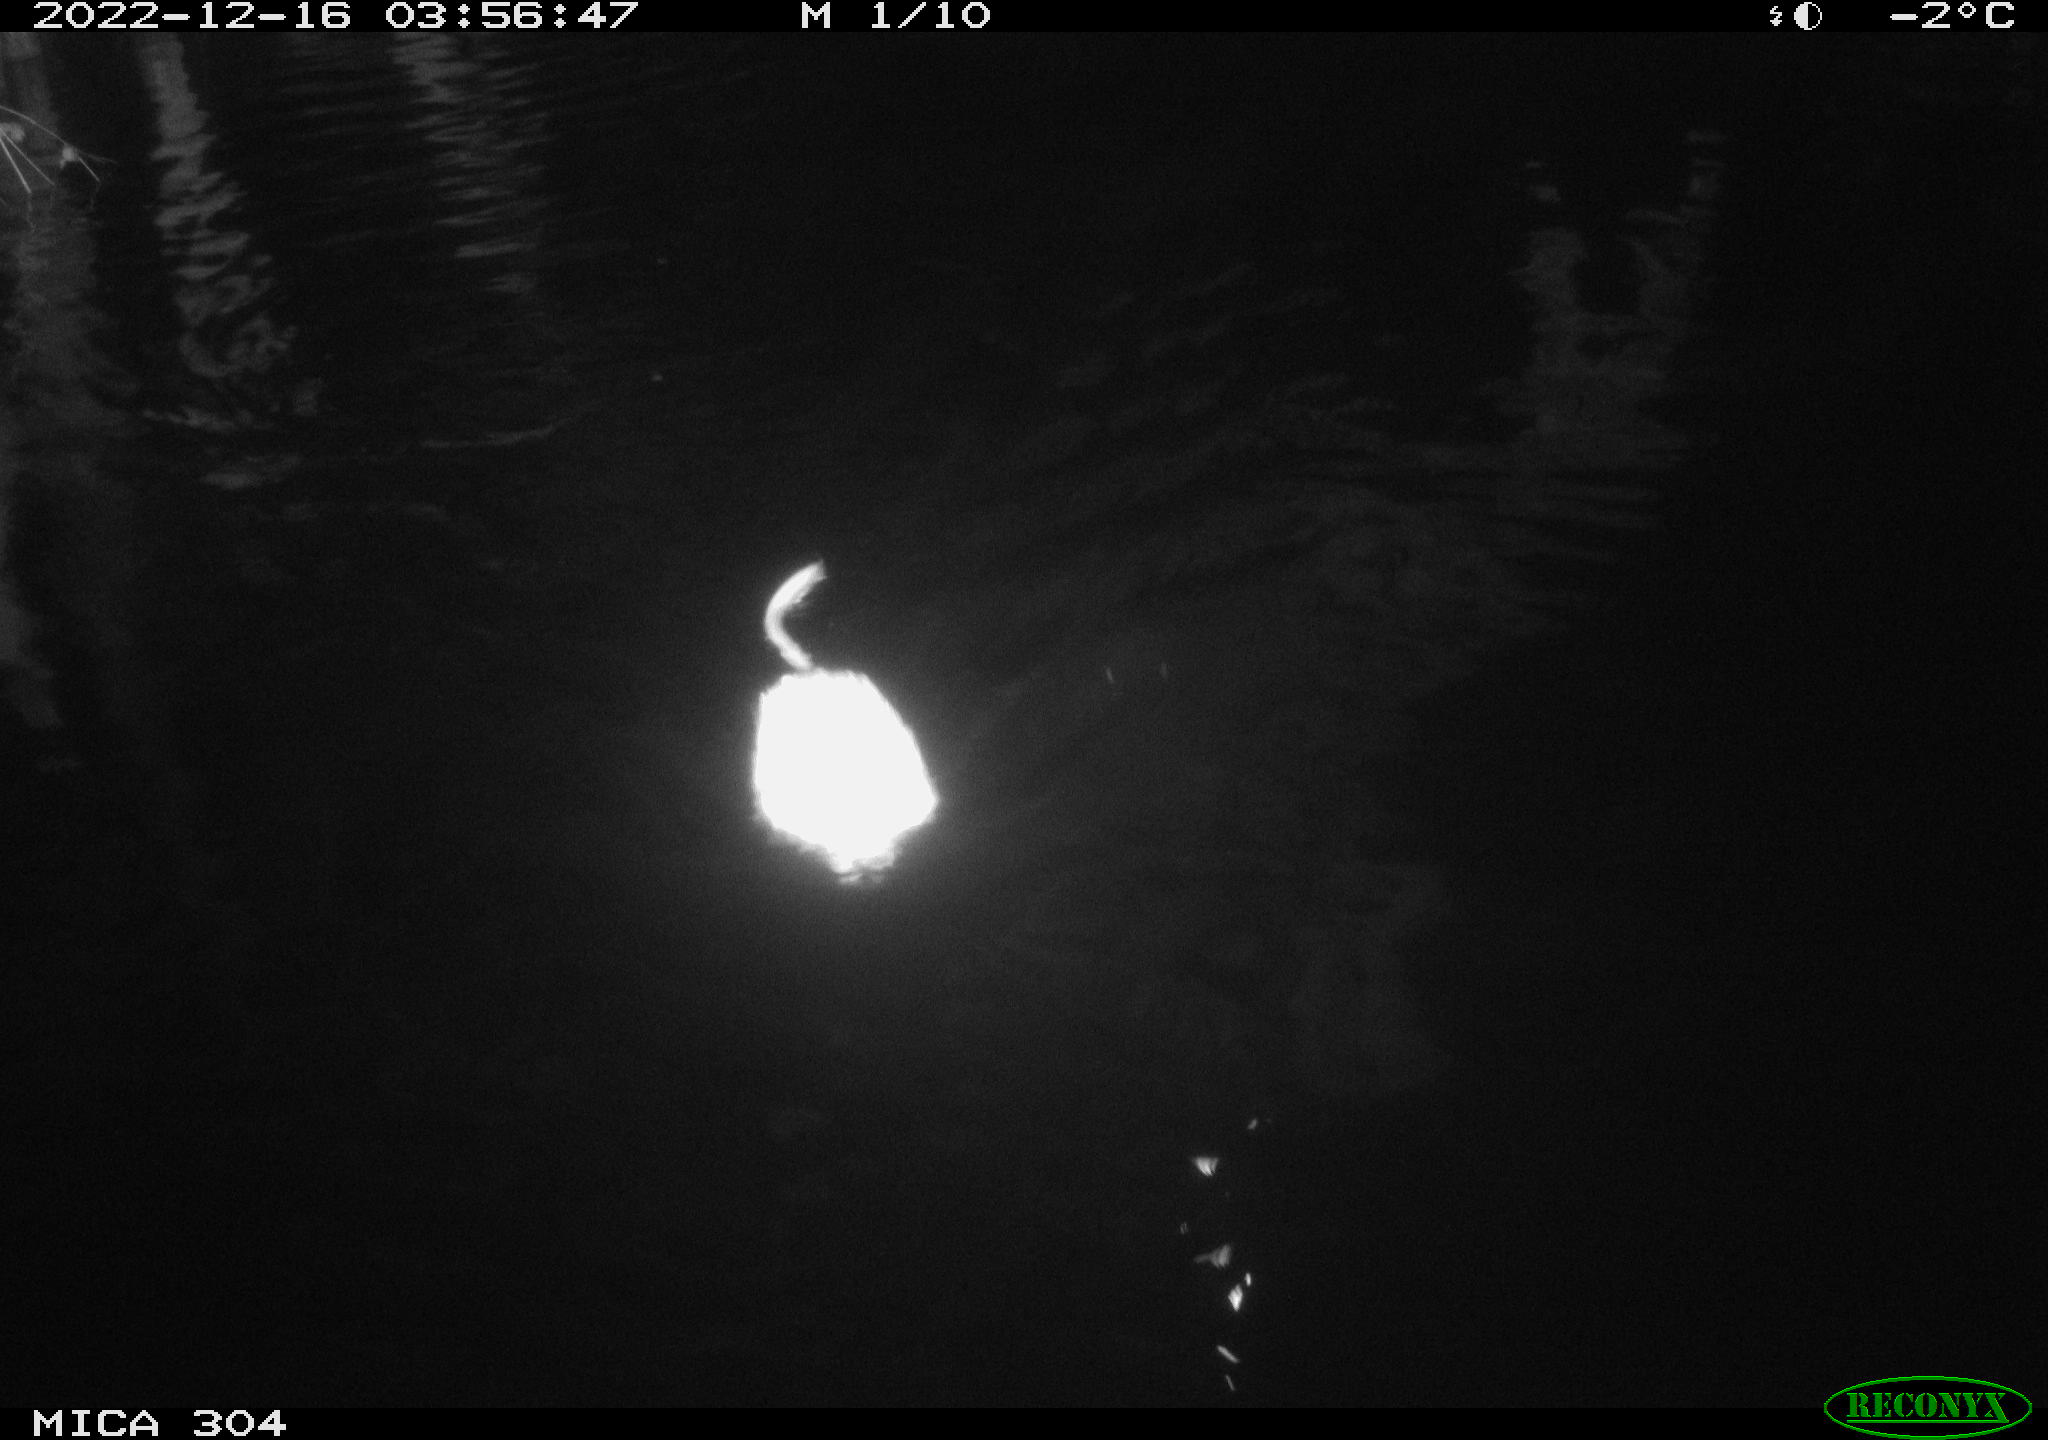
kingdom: Animalia
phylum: Chordata
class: Mammalia
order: Rodentia
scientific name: Rodentia
